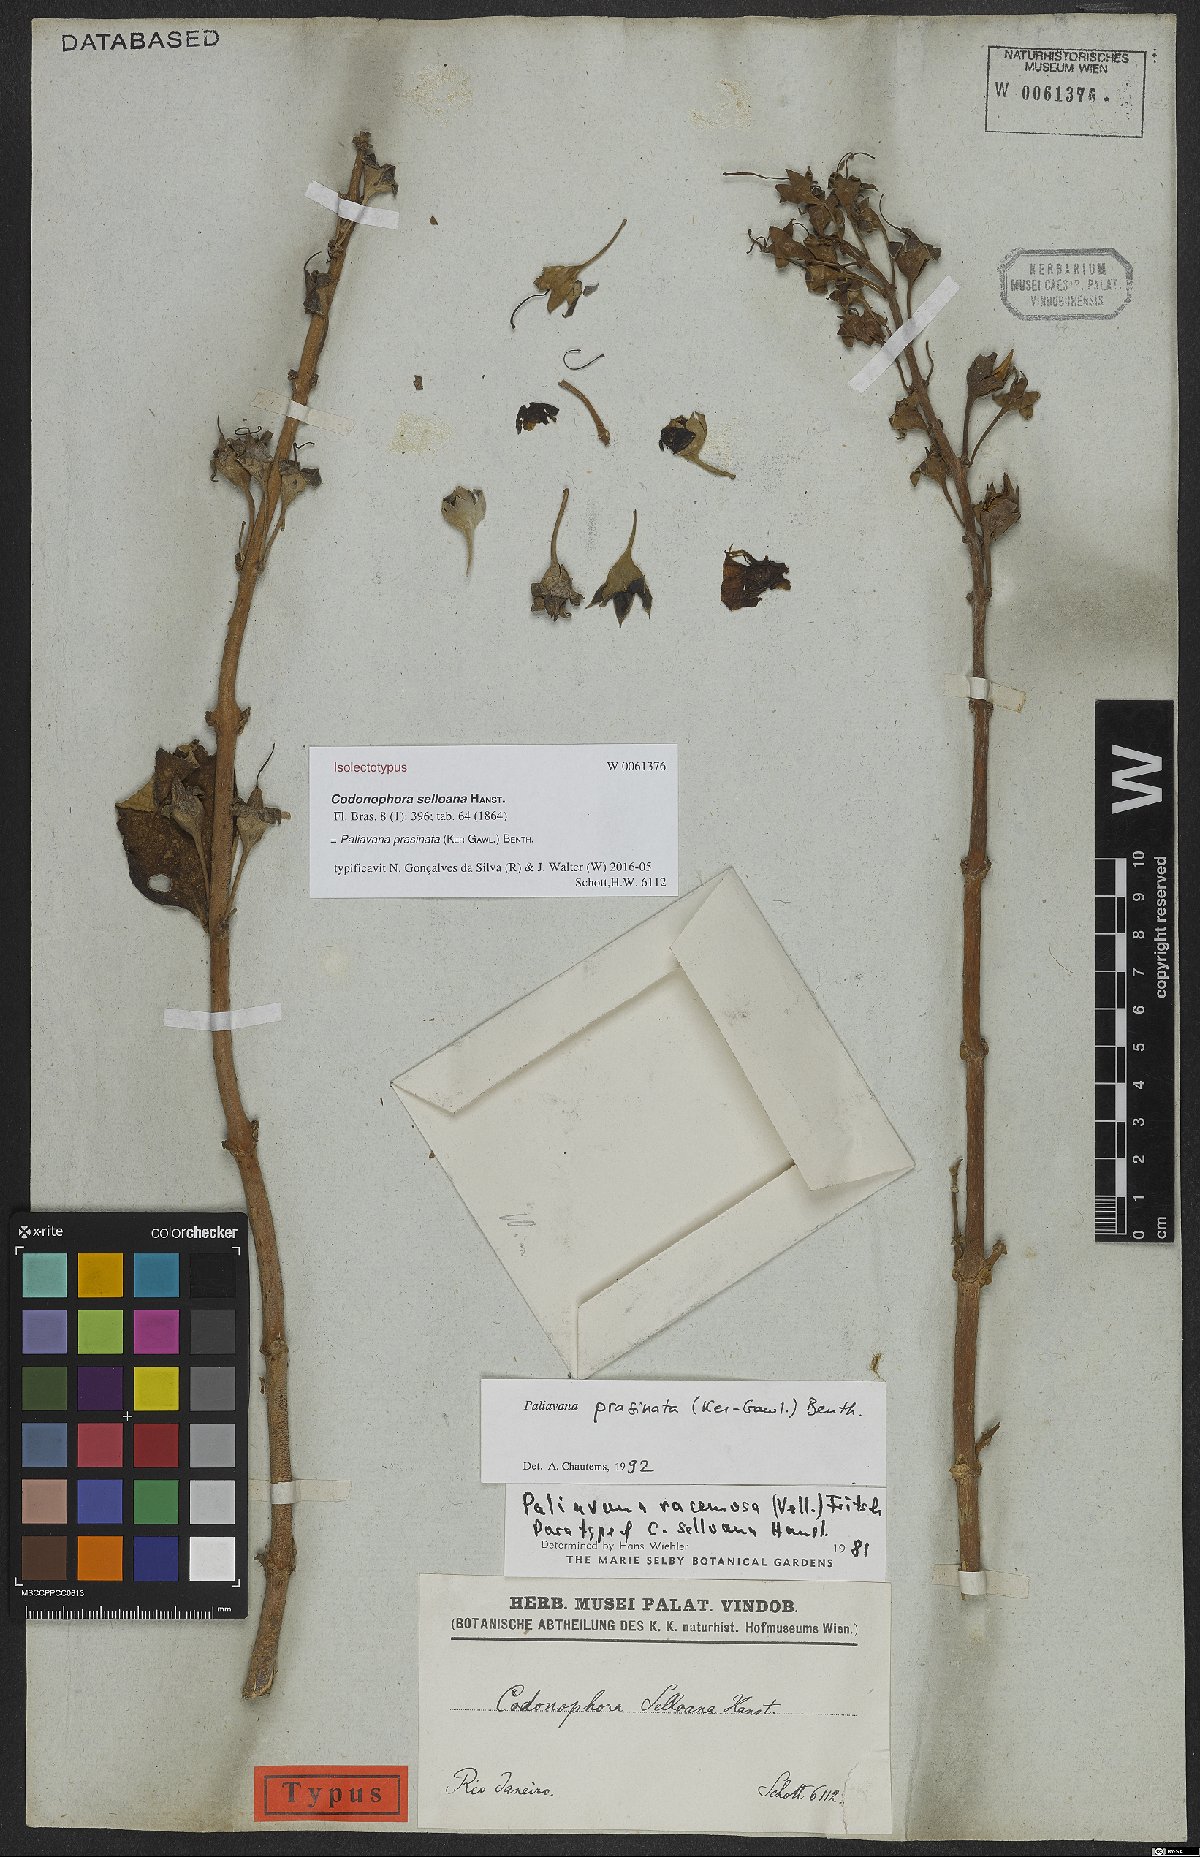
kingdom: Plantae
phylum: Tracheophyta
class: Magnoliopsida
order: Lamiales
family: Gesneriaceae
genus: Paliavana
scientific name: Paliavana prasinata
